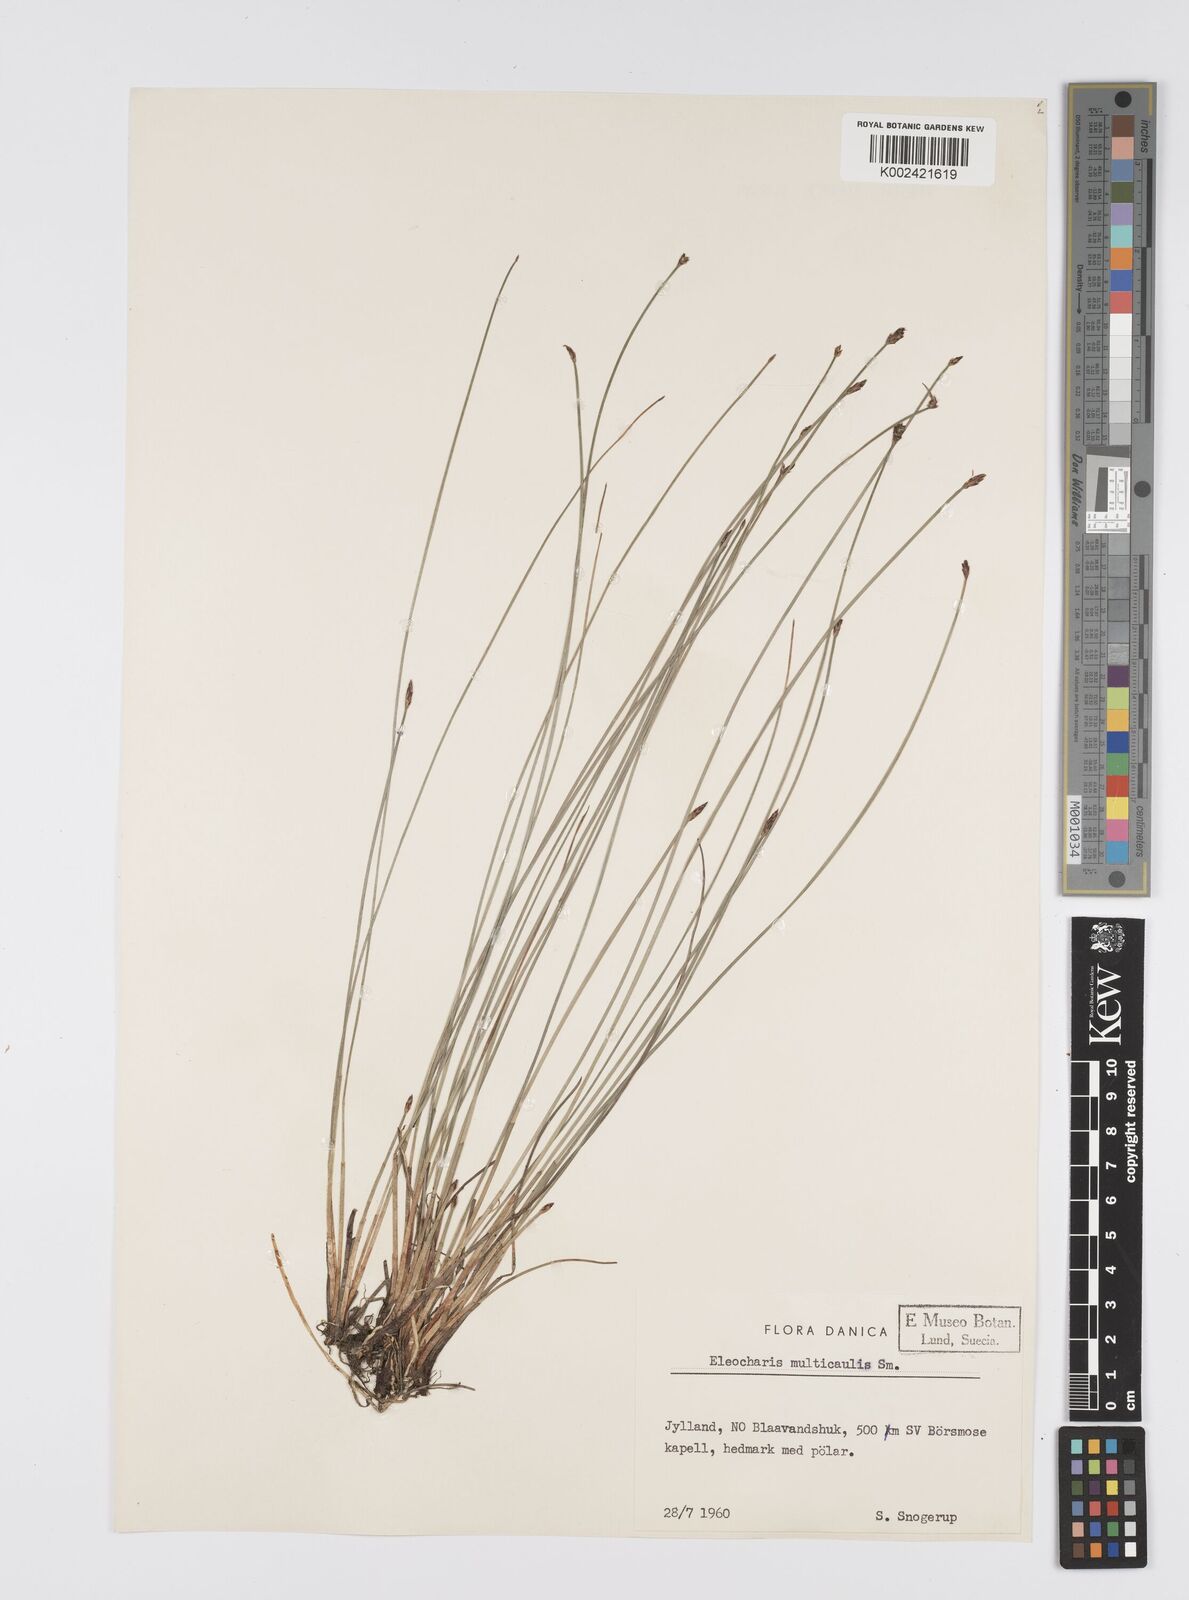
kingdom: Plantae
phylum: Tracheophyta
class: Liliopsida
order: Poales
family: Cyperaceae
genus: Eleocharis
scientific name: Eleocharis multicaulis
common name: Many-stalked spike-rush
